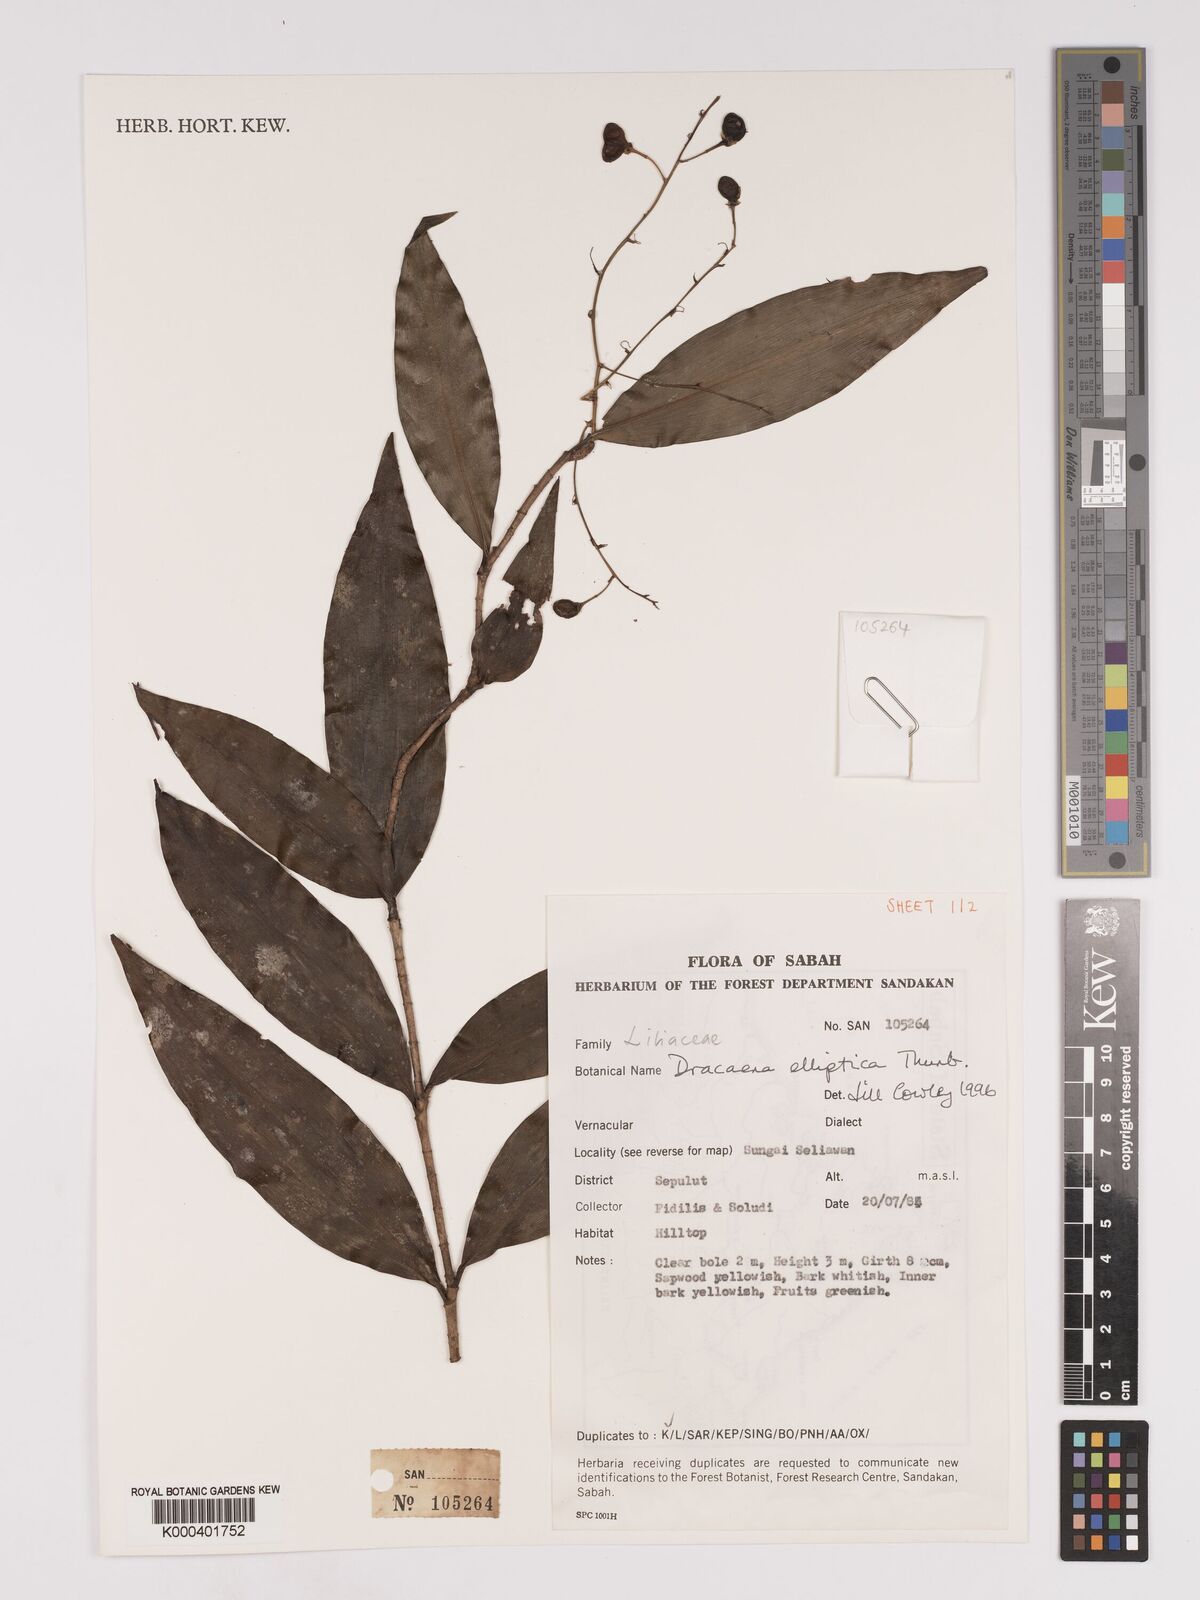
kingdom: Plantae
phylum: Tracheophyta
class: Liliopsida
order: Asparagales
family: Asparagaceae
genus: Dracaena
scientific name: Dracaena elliptica
